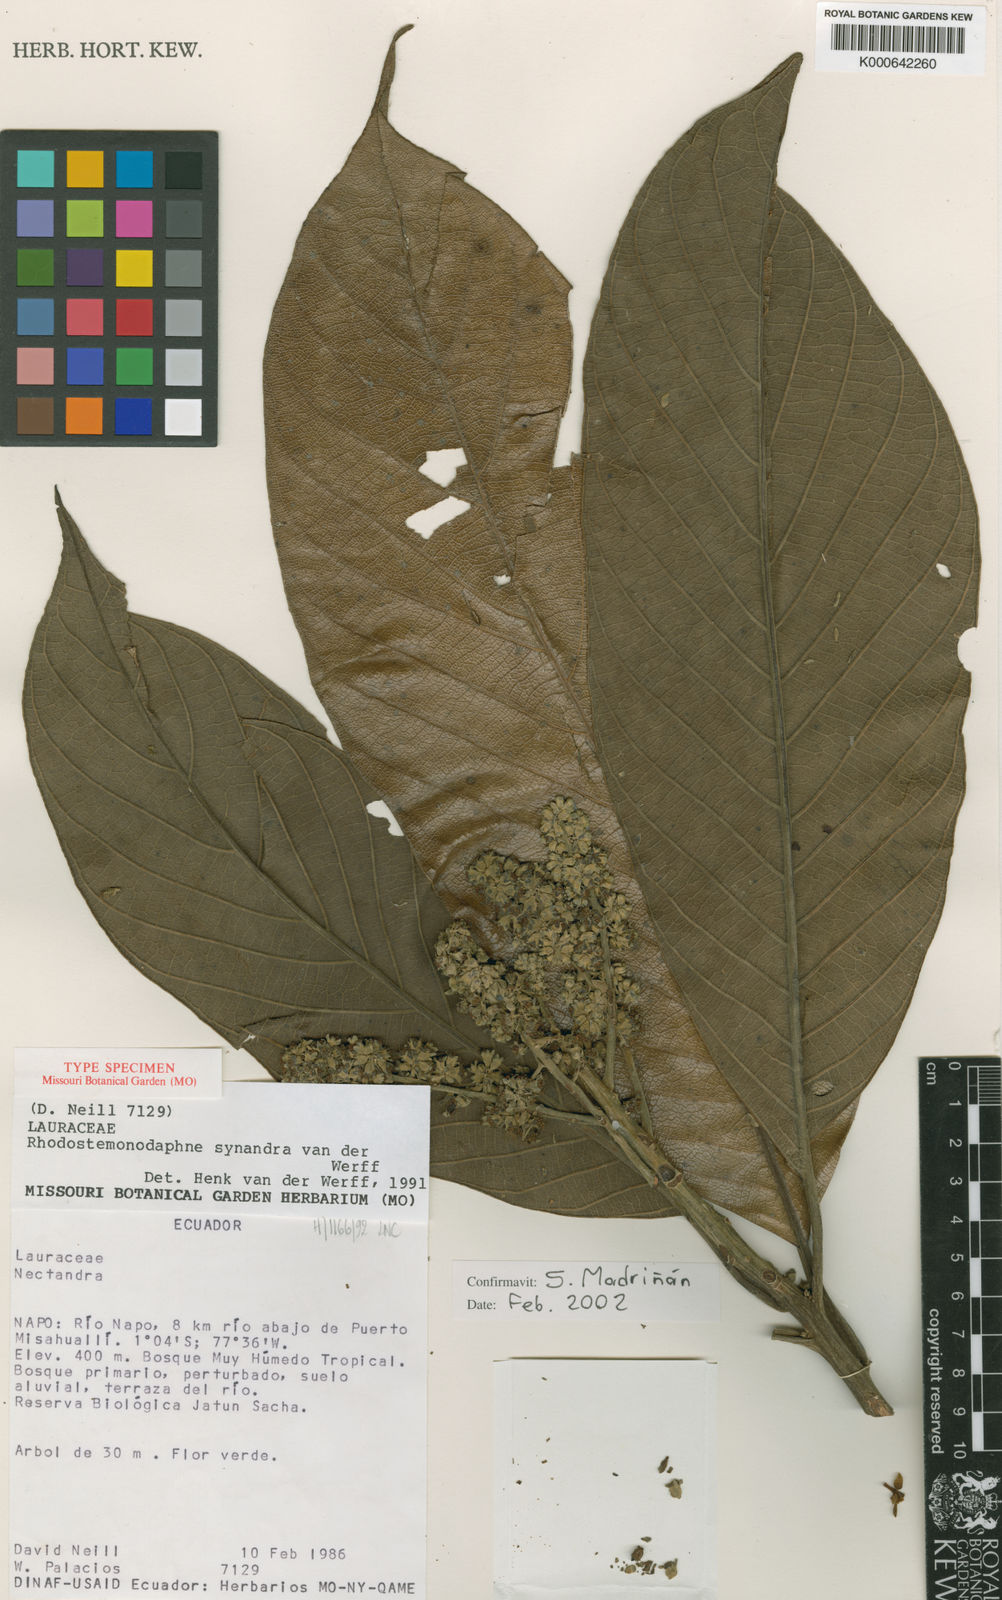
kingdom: Plantae
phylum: Tracheophyta
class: Magnoliopsida
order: Laurales
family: Lauraceae
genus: Rhodostemonodaphne
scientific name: Rhodostemonodaphne synandra
